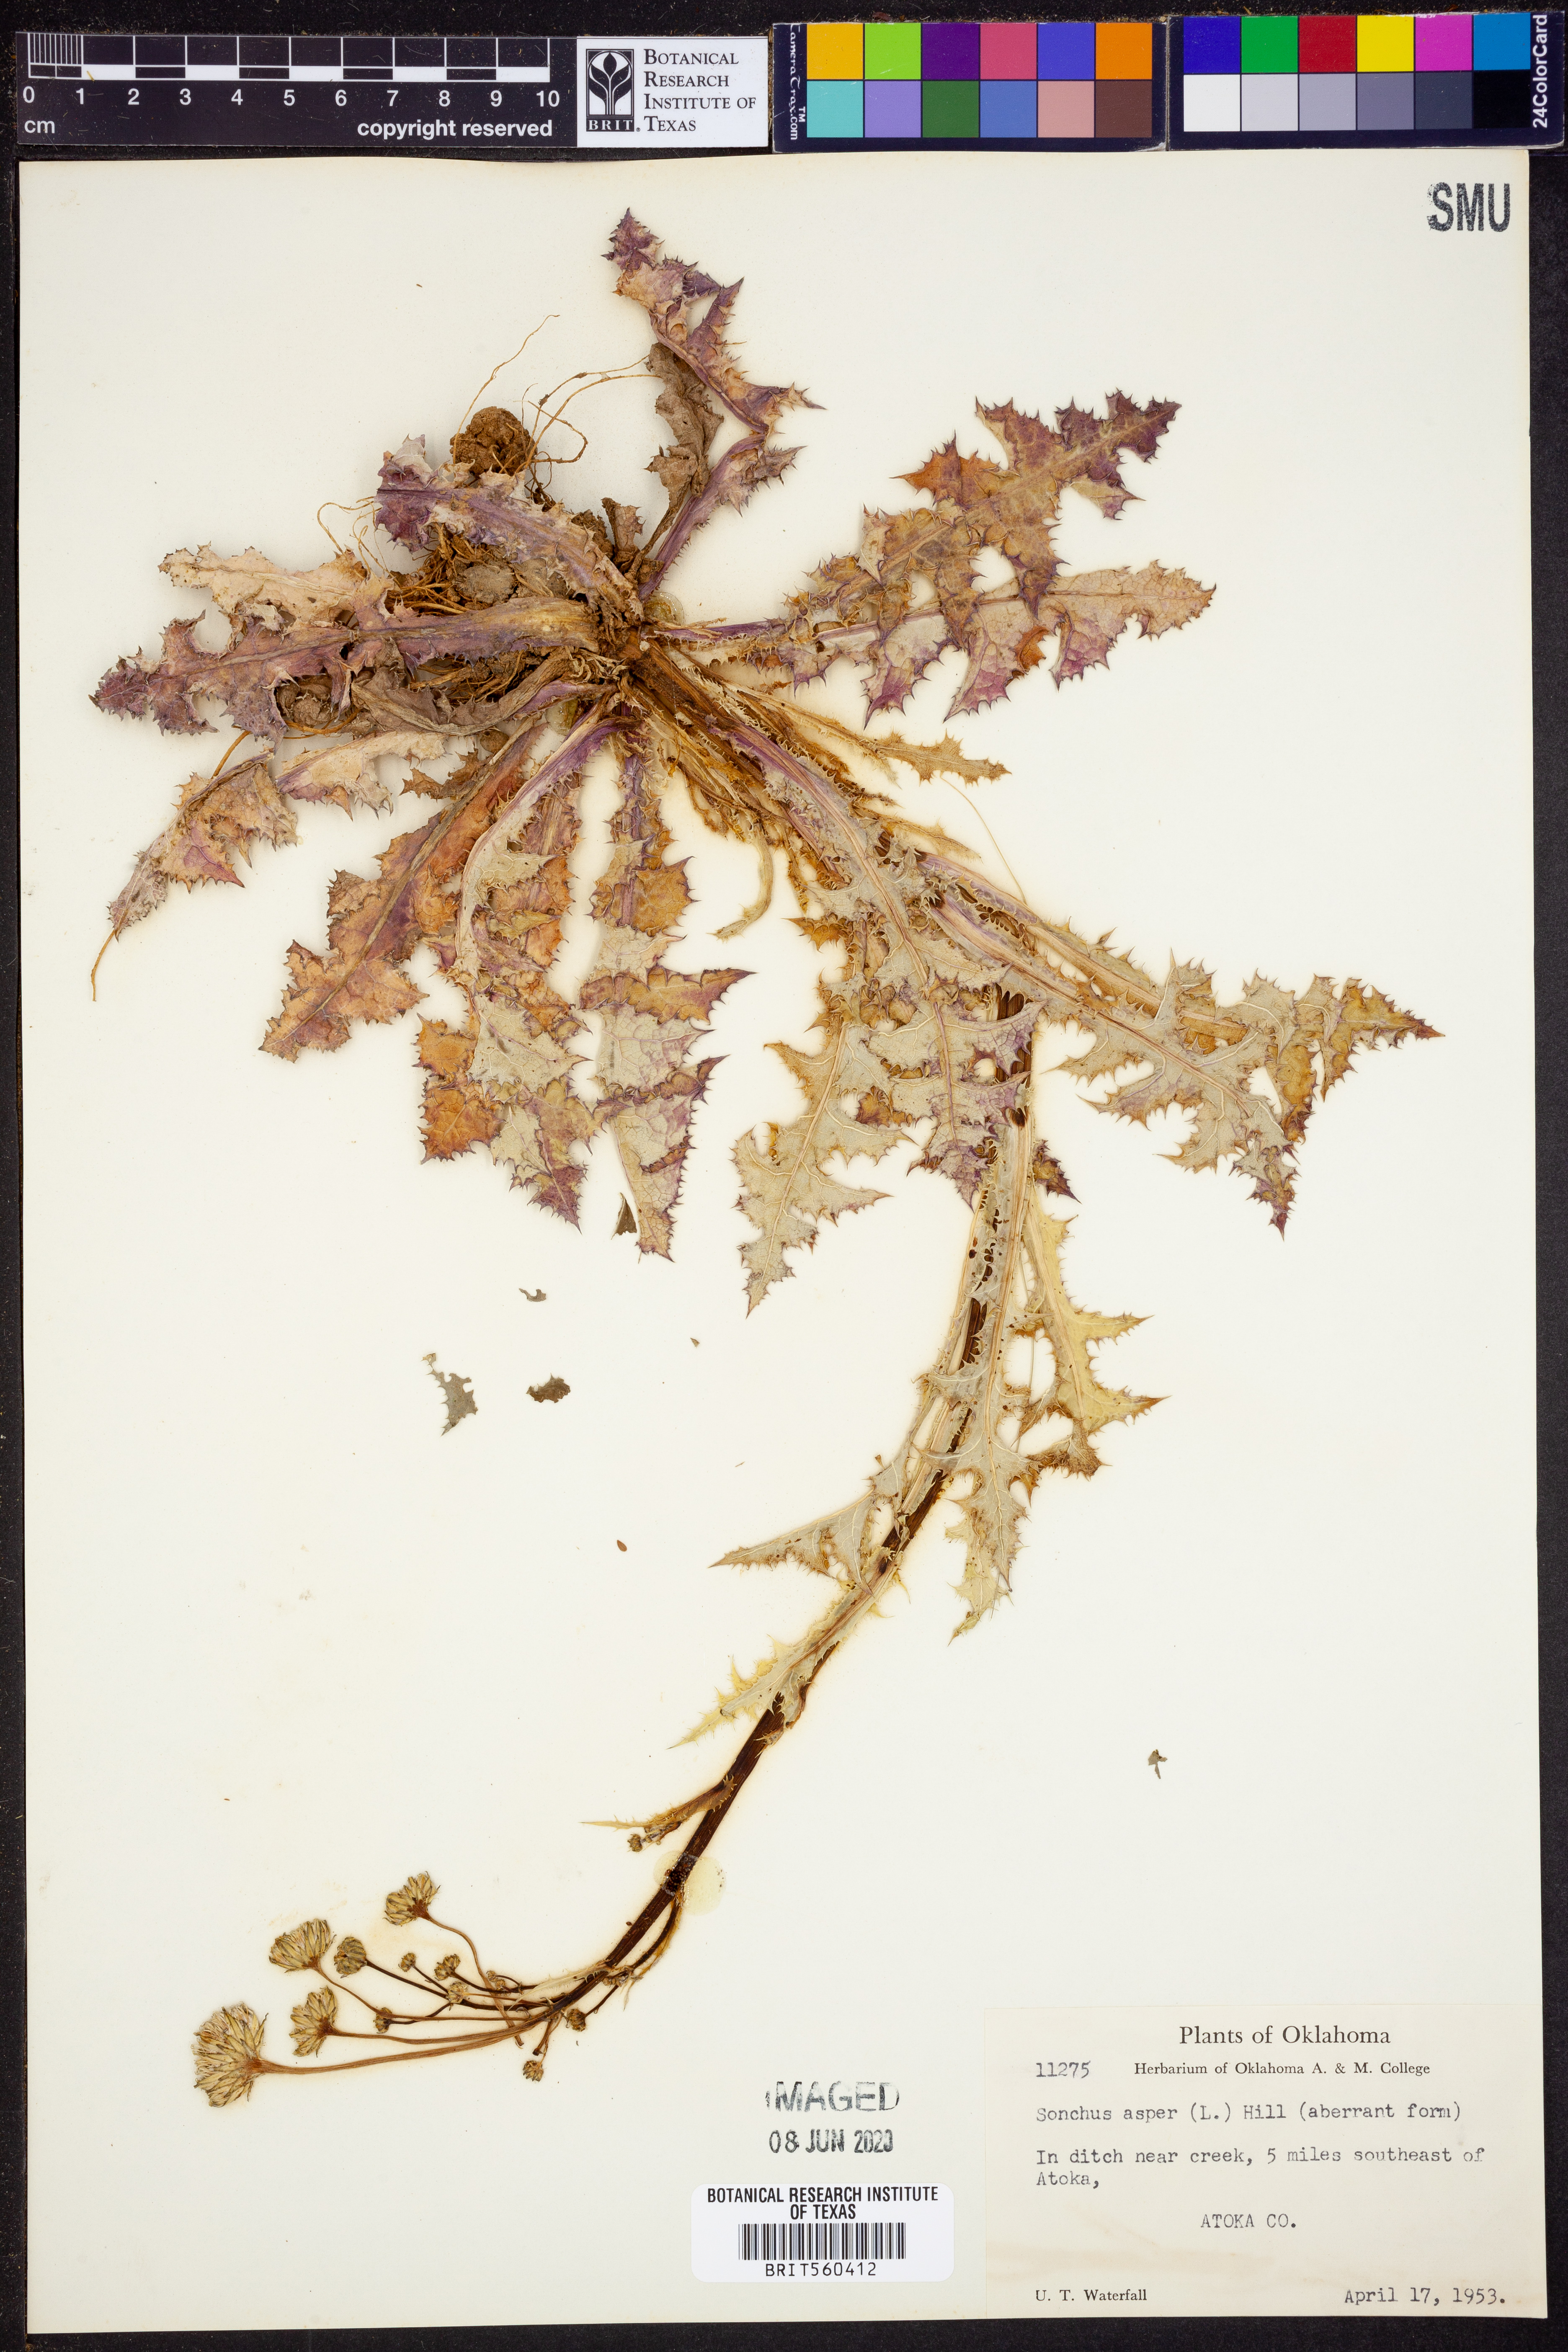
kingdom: Plantae
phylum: Tracheophyta
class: Magnoliopsida
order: Asterales
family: Asteraceae
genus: Sonchus
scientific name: Sonchus asper
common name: Prickly sow-thistle
